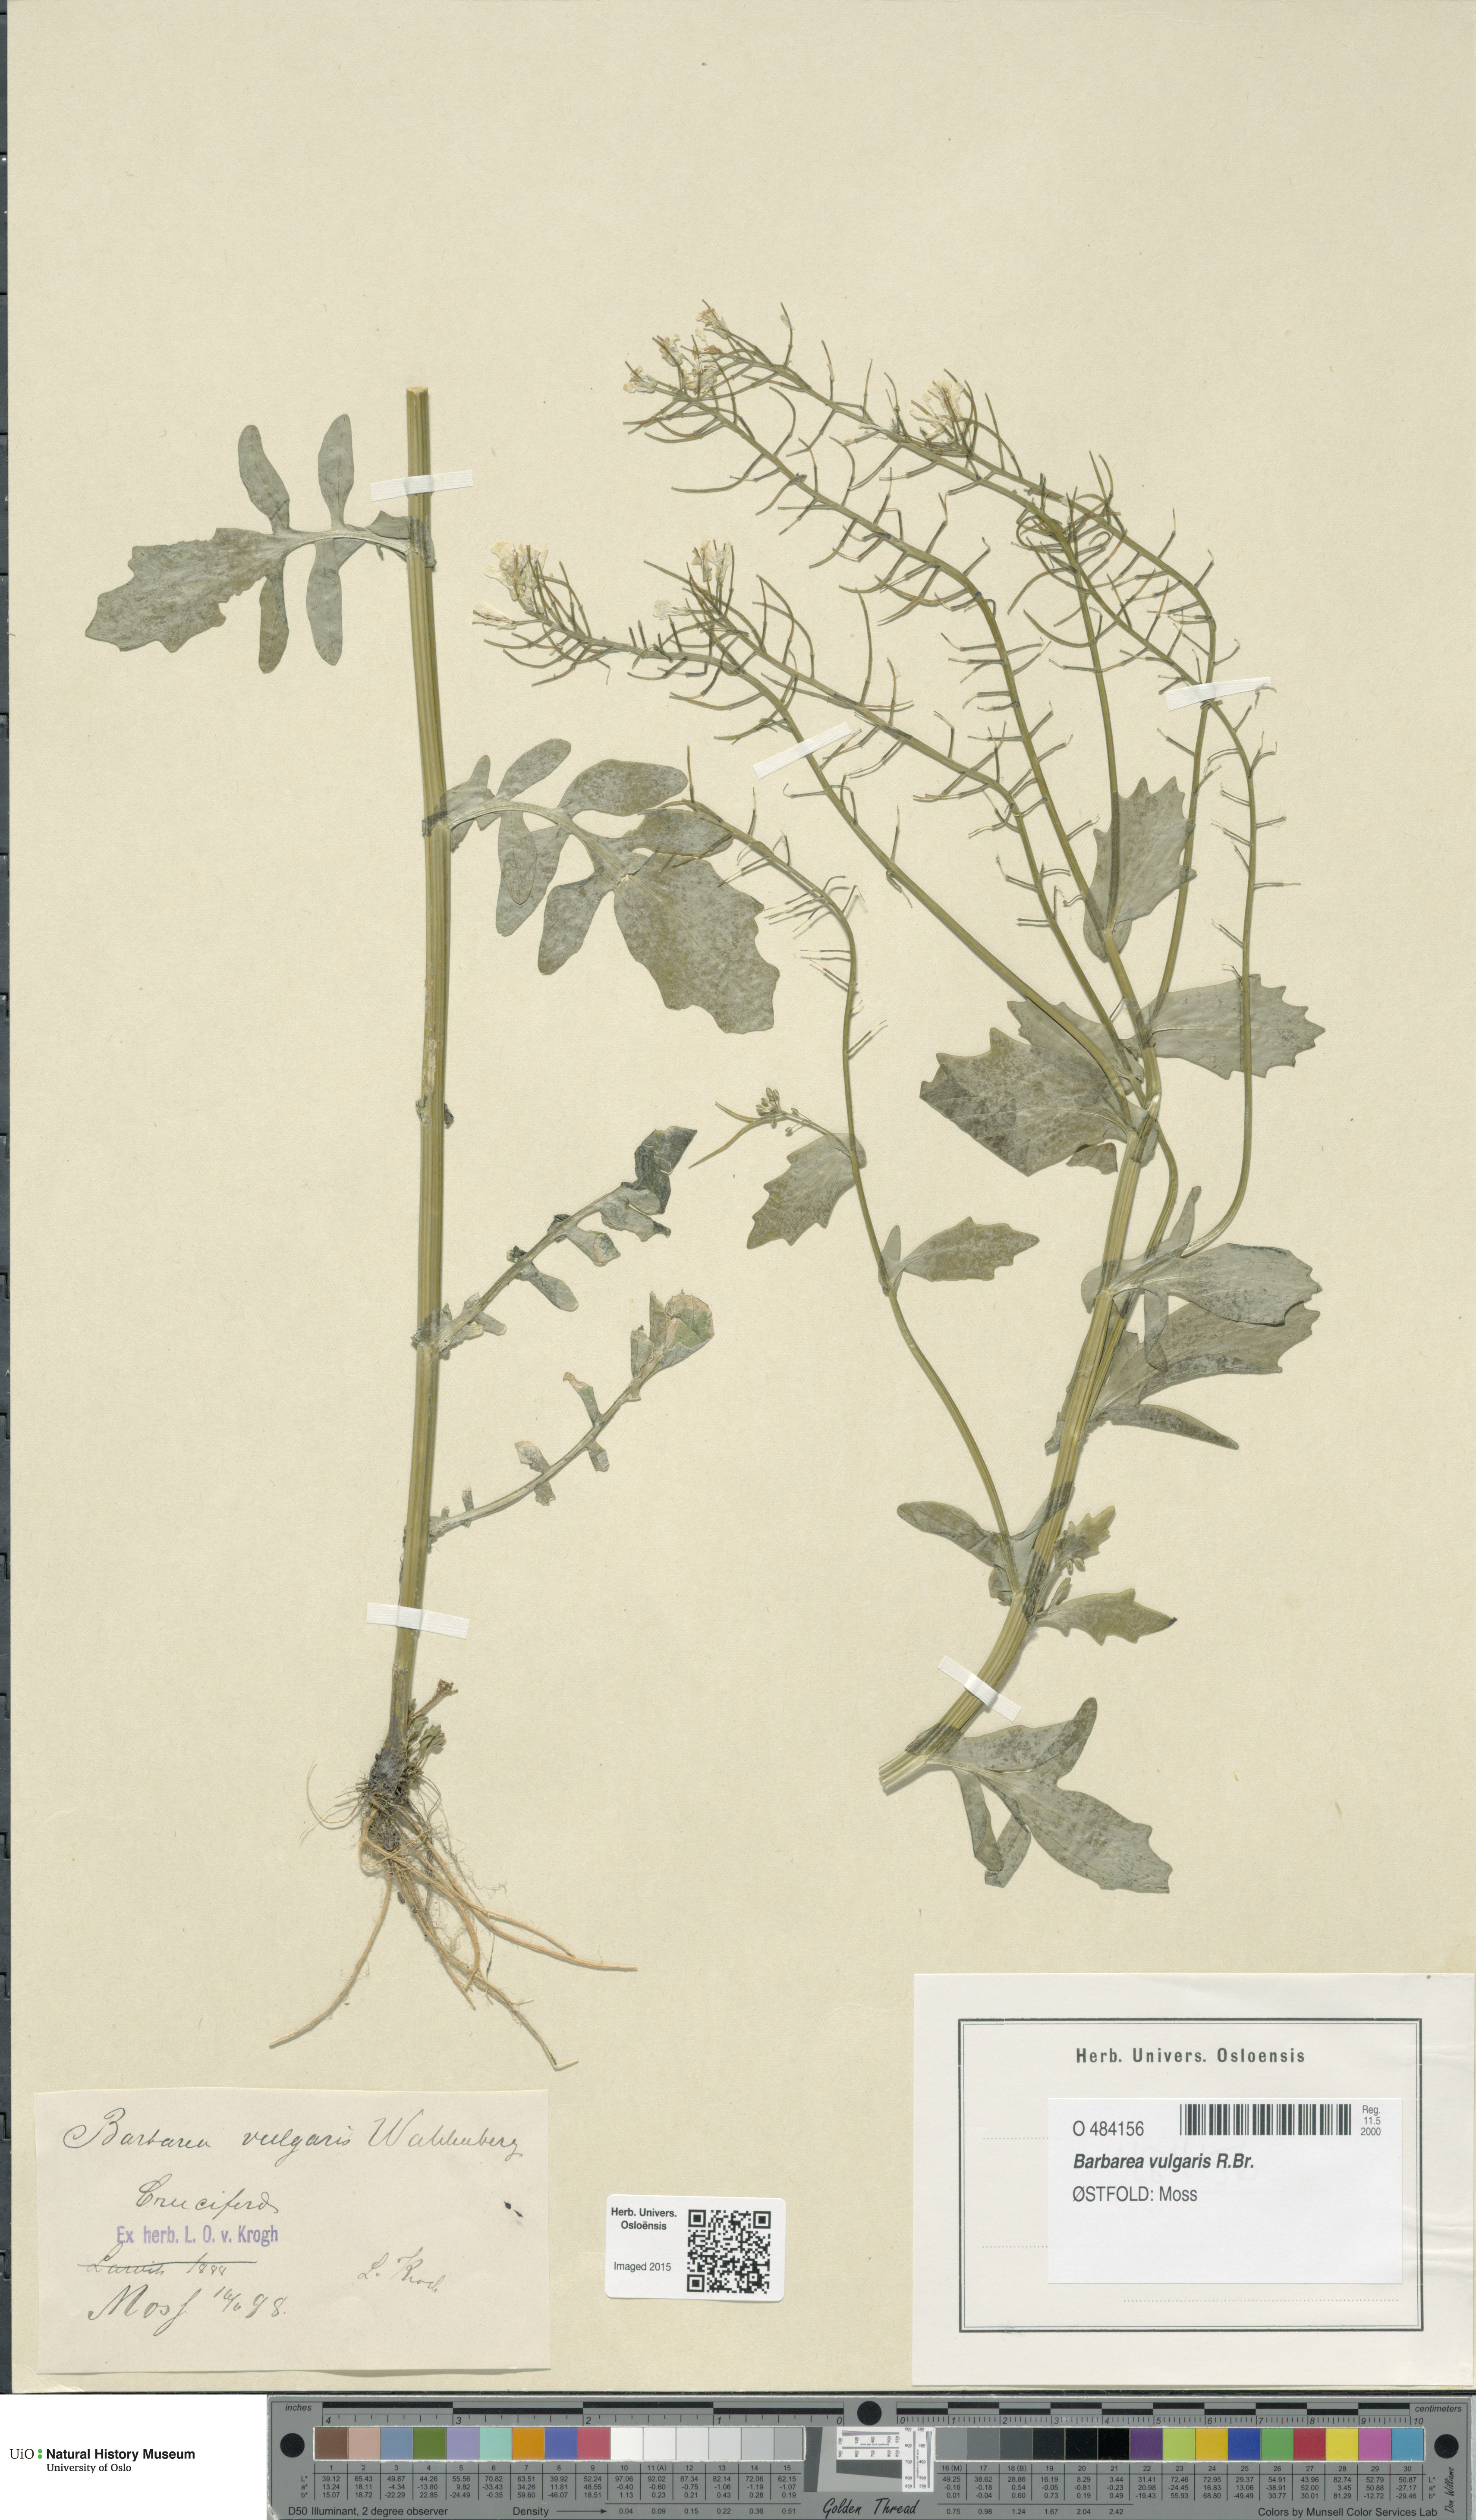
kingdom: Plantae
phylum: Tracheophyta
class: Magnoliopsida
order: Brassicales
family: Brassicaceae
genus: Barbarea
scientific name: Barbarea vulgaris
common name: Cressy-greens
